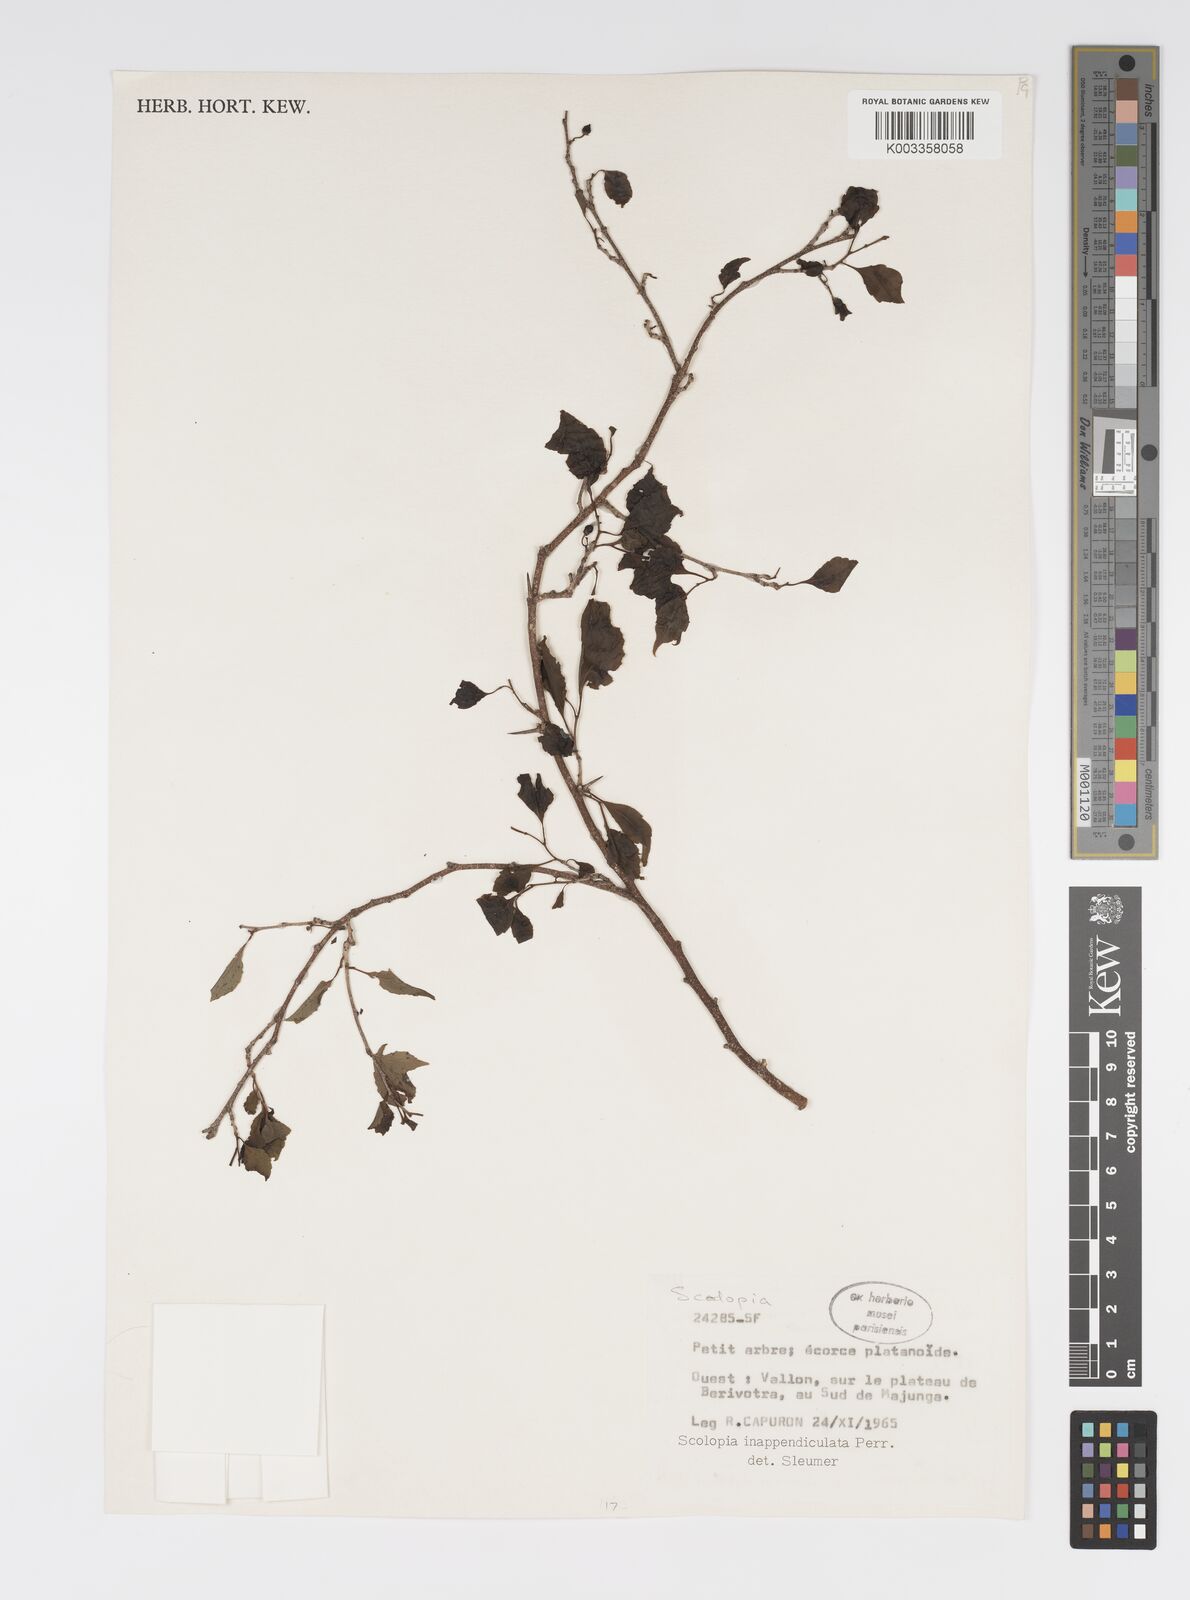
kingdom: Plantae
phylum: Tracheophyta
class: Magnoliopsida
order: Malpighiales
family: Salicaceae
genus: Scolopia
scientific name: Scolopia inappendiculata
